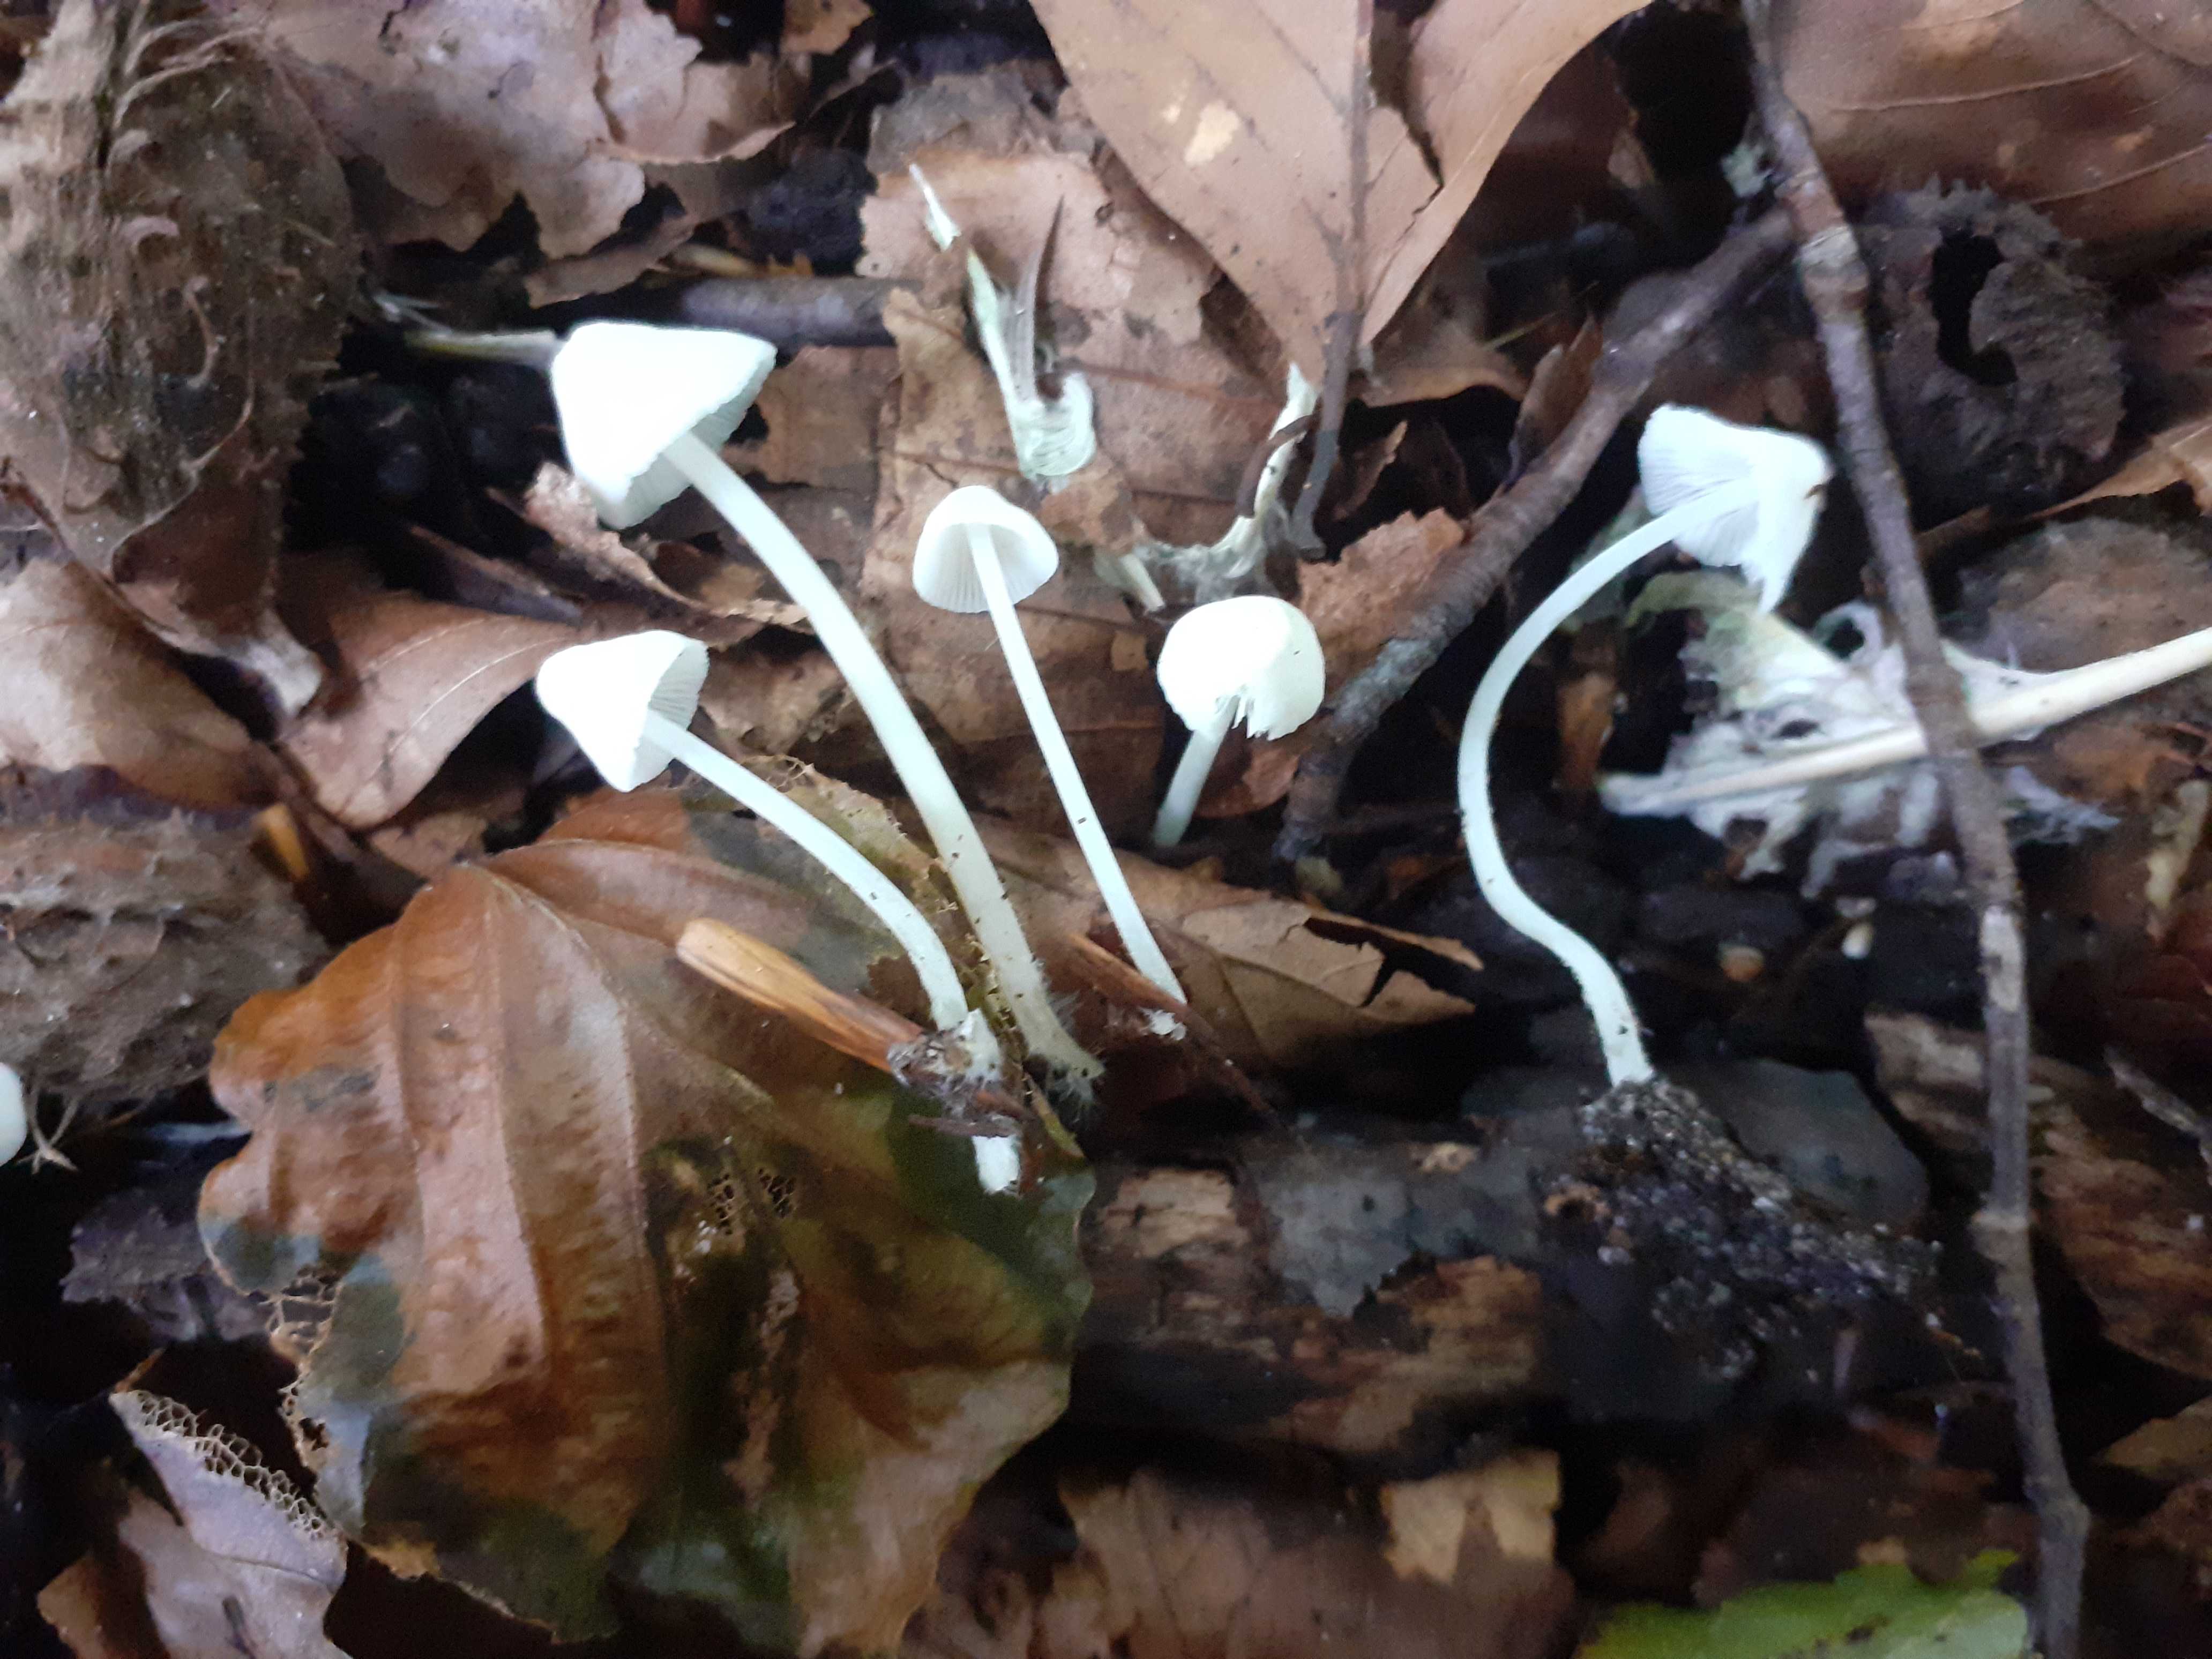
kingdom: Fungi
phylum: Basidiomycota
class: Agaricomycetes
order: Agaricales
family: Mycenaceae
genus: Hemimycena
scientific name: Hemimycena cucullata
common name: tætbladet huesvamp
